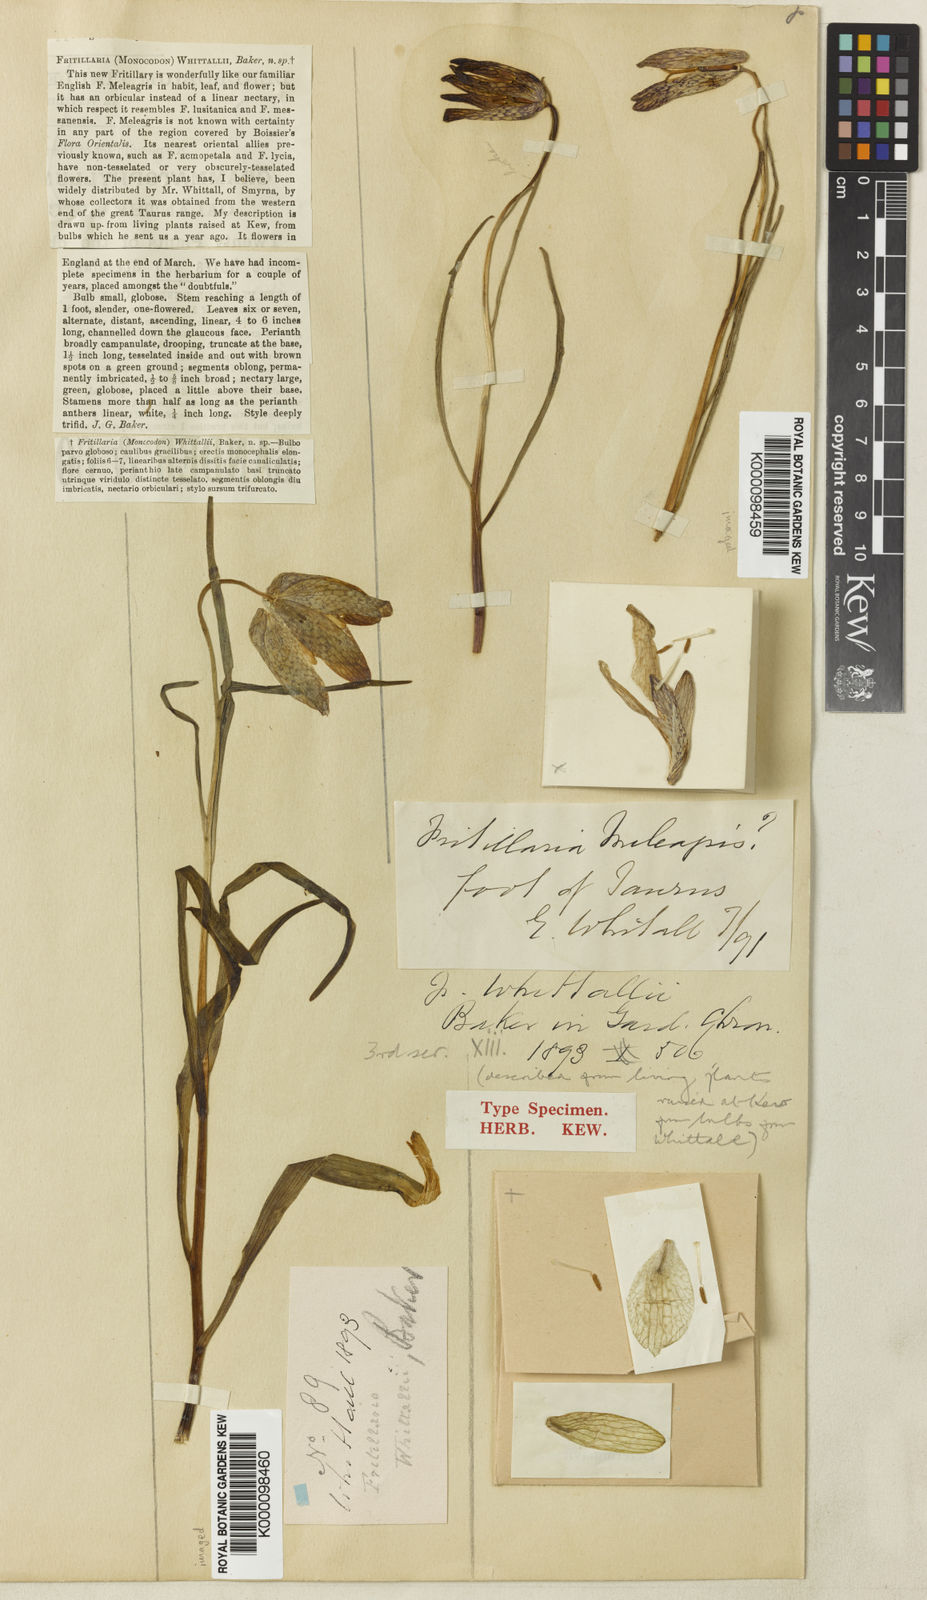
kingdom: Plantae
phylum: Tracheophyta
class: Liliopsida
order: Liliales
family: Liliaceae
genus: Fritillaria
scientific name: Fritillaria whittallii
